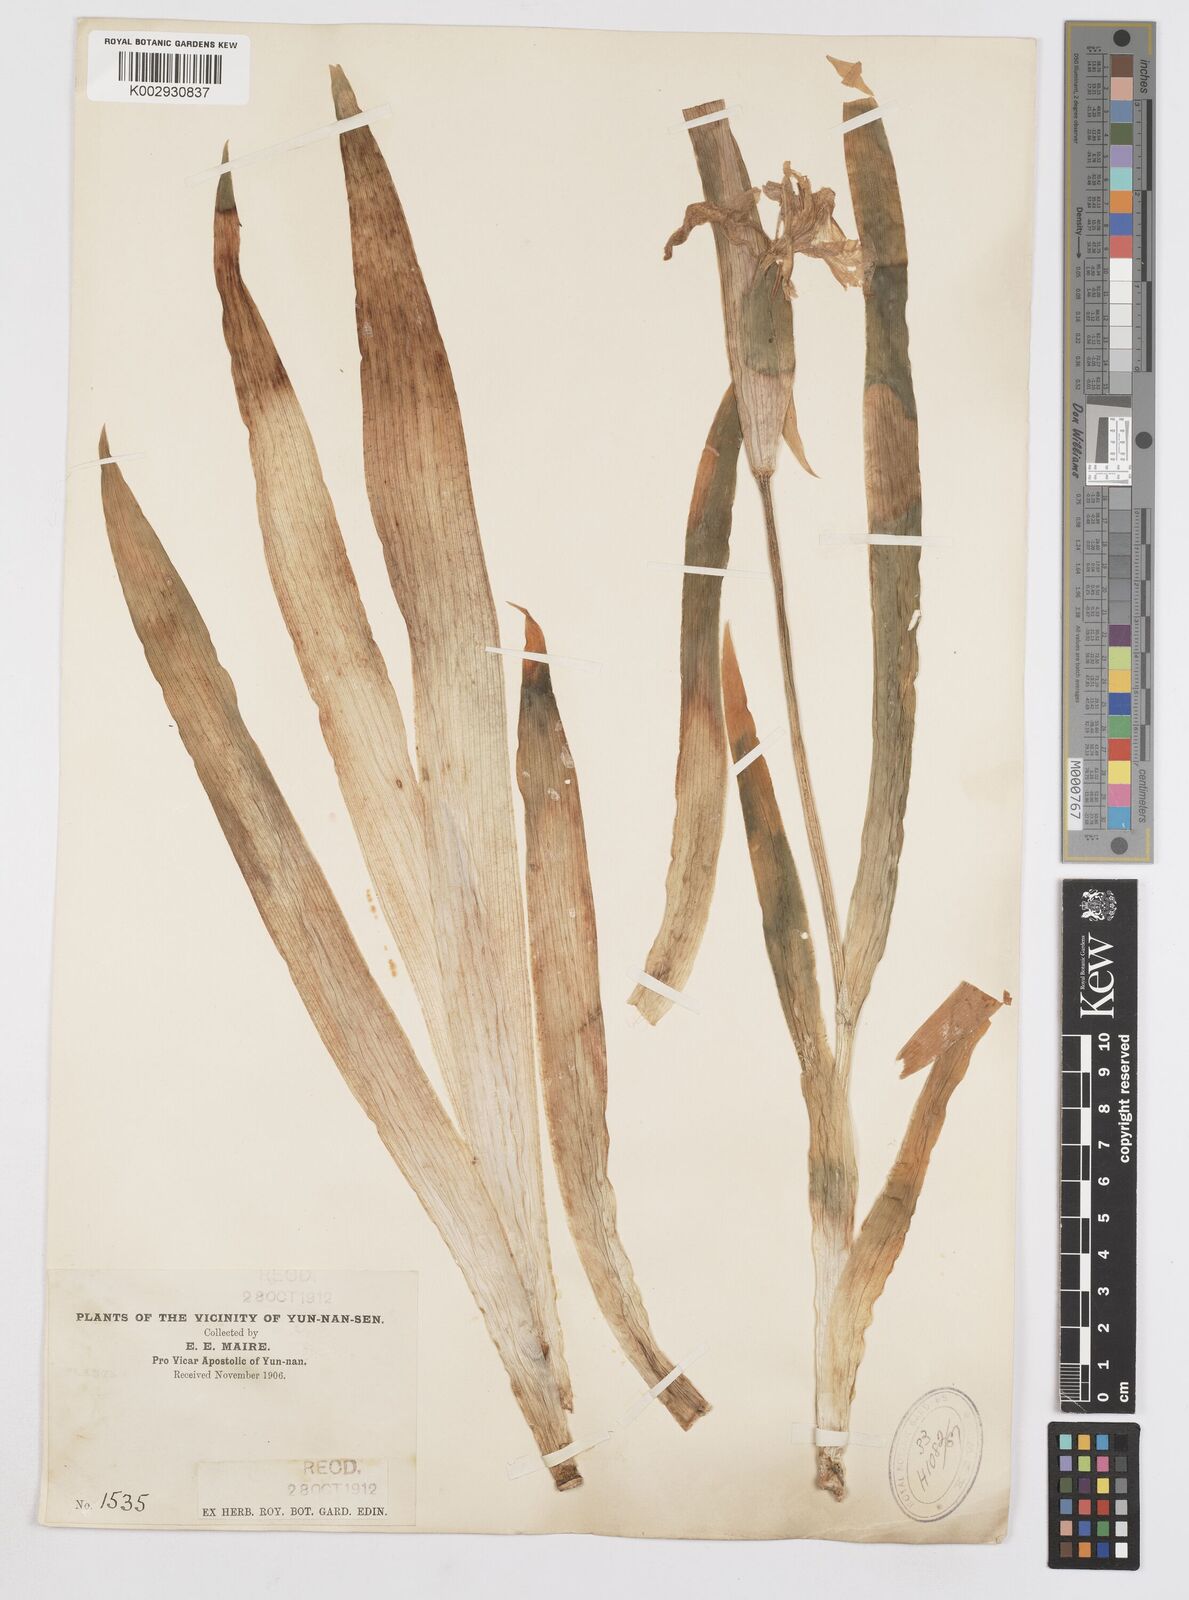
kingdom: Plantae
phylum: Tracheophyta
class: Liliopsida
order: Asparagales
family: Iridaceae
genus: Iris
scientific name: Iris tectorum
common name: Wall iris
